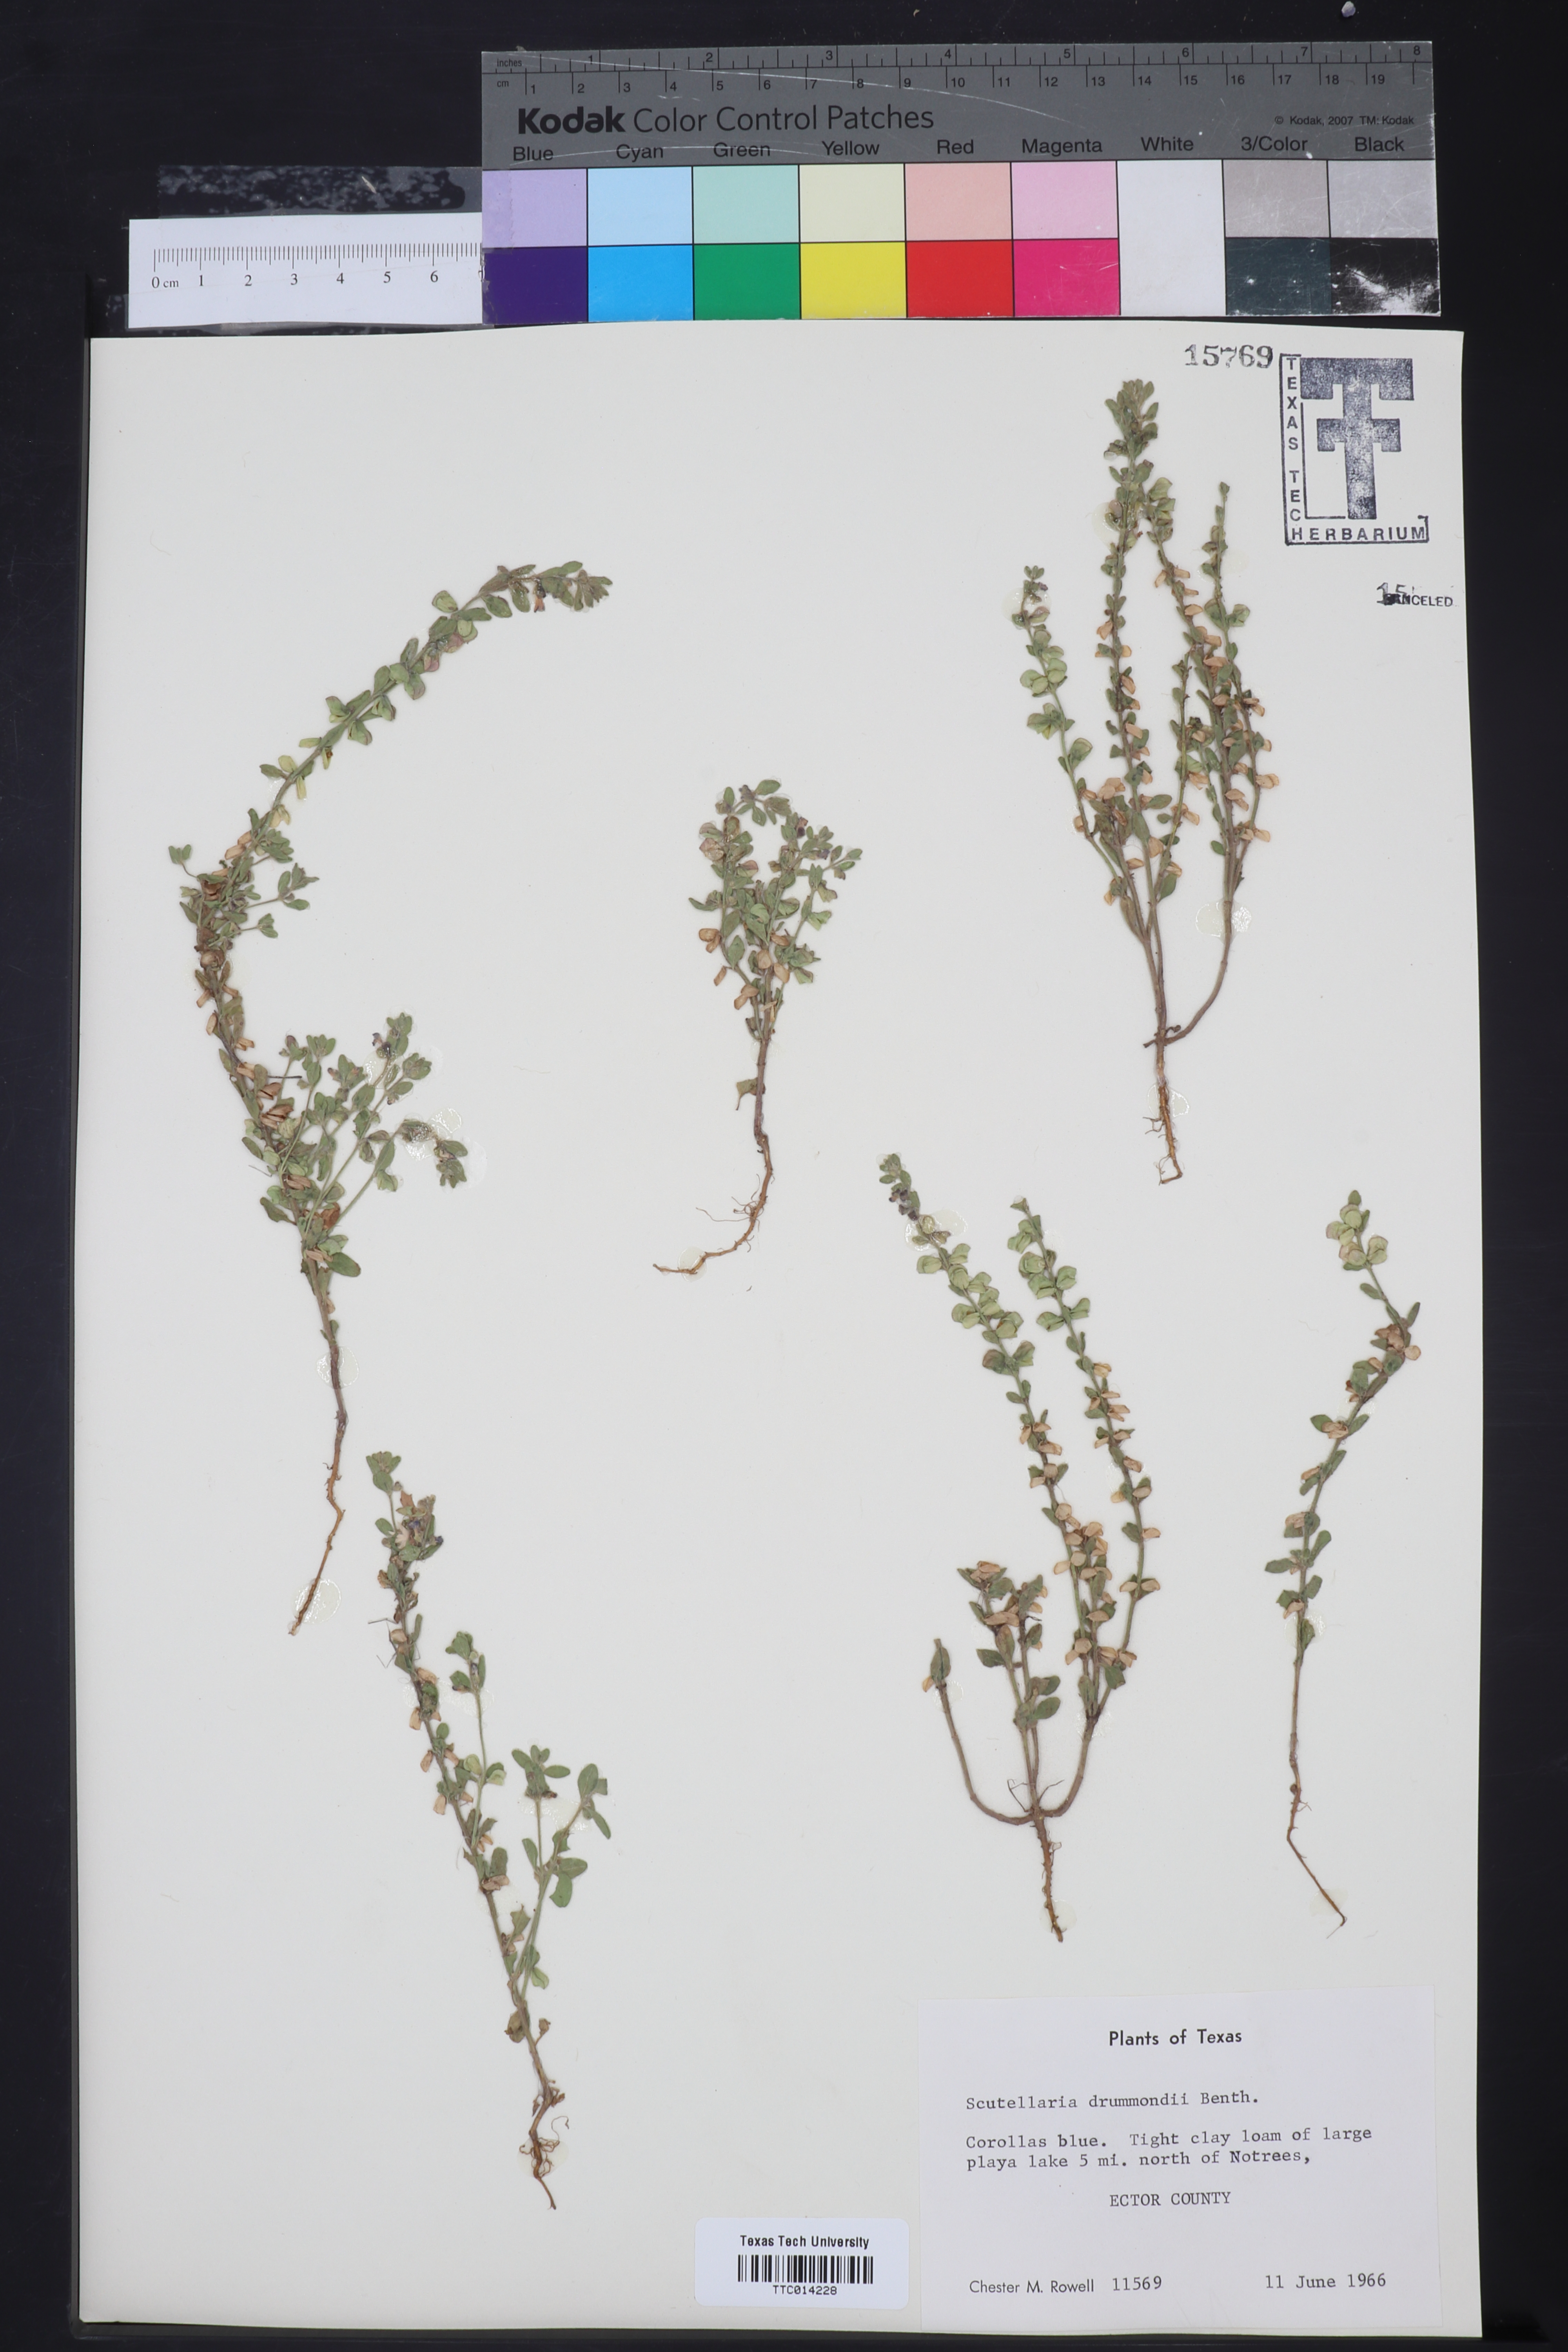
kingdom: Plantae
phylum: Tracheophyta
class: Magnoliopsida
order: Lamiales
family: Lamiaceae
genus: Scutellaria
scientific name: Scutellaria drummondii
